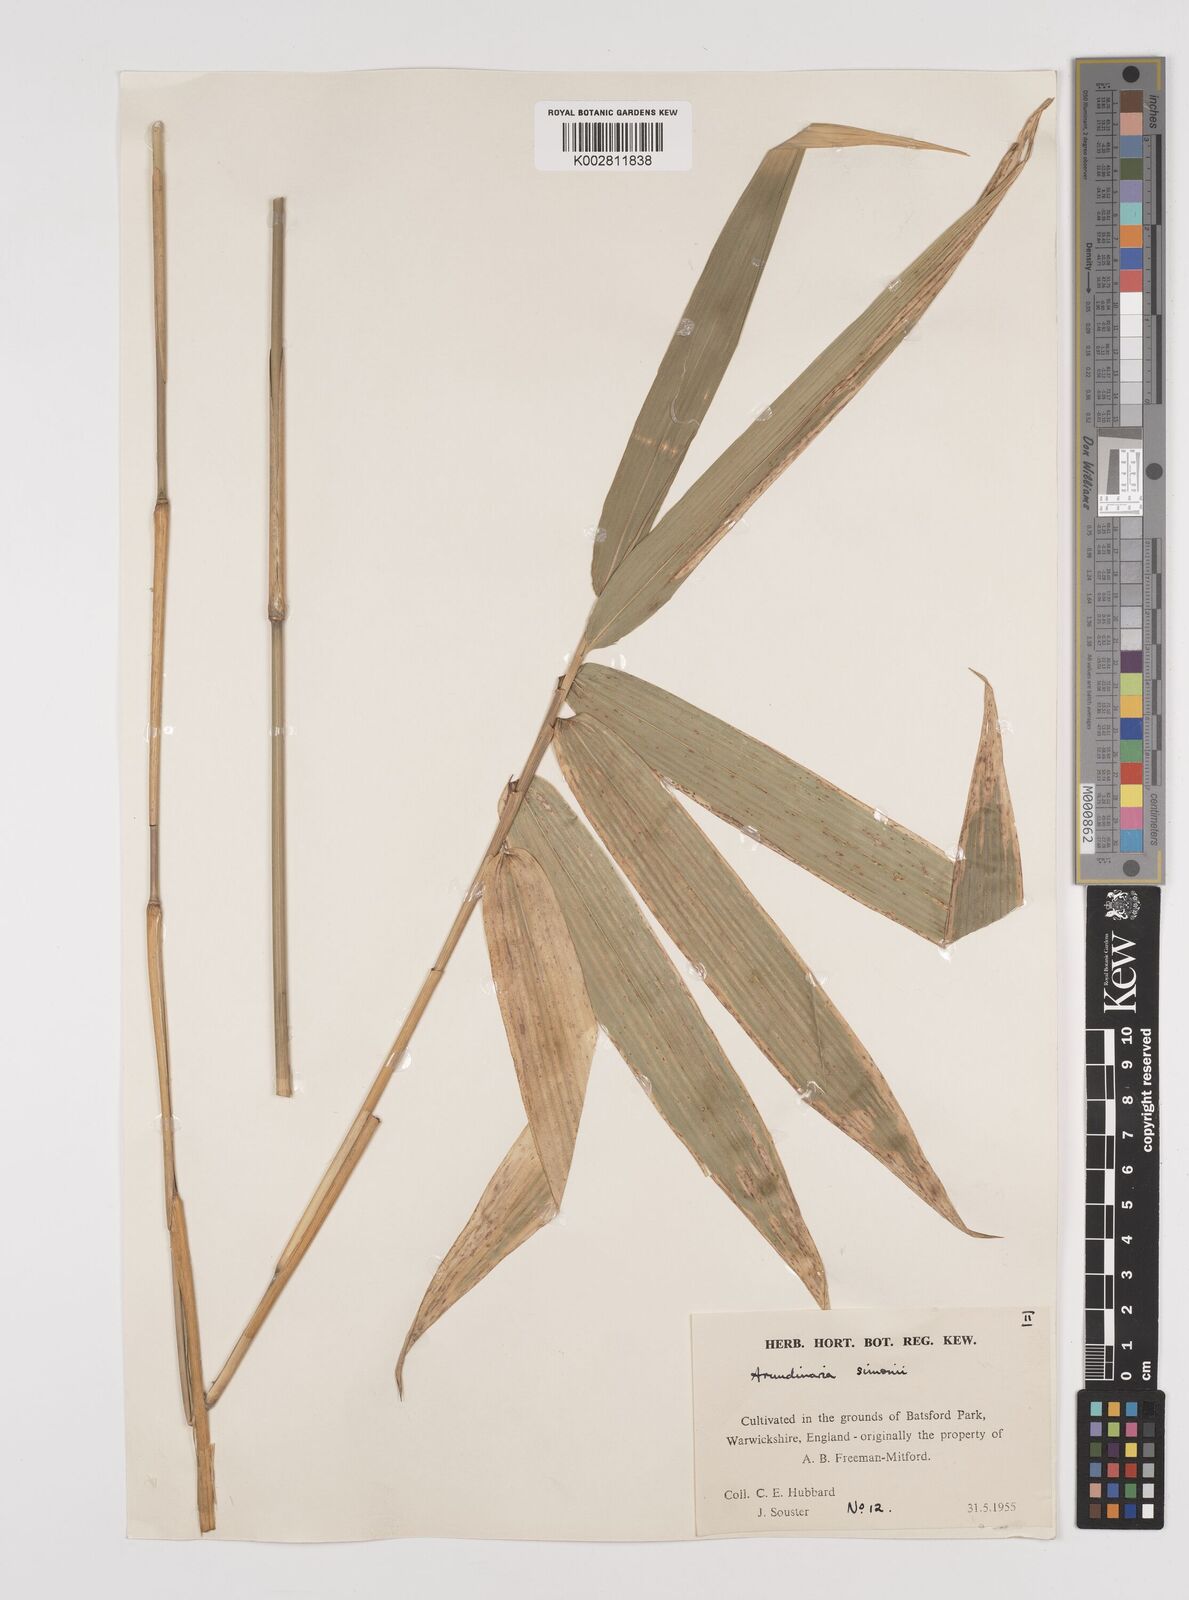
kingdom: Plantae
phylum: Tracheophyta
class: Liliopsida
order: Poales
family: Poaceae
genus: Pleioblastus
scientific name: Pleioblastus simonii
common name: Simon bamboo
